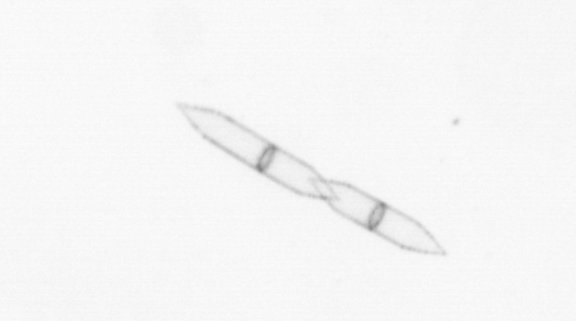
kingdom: Chromista
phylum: Ochrophyta
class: Bacillariophyceae
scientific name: Bacillariophyceae
